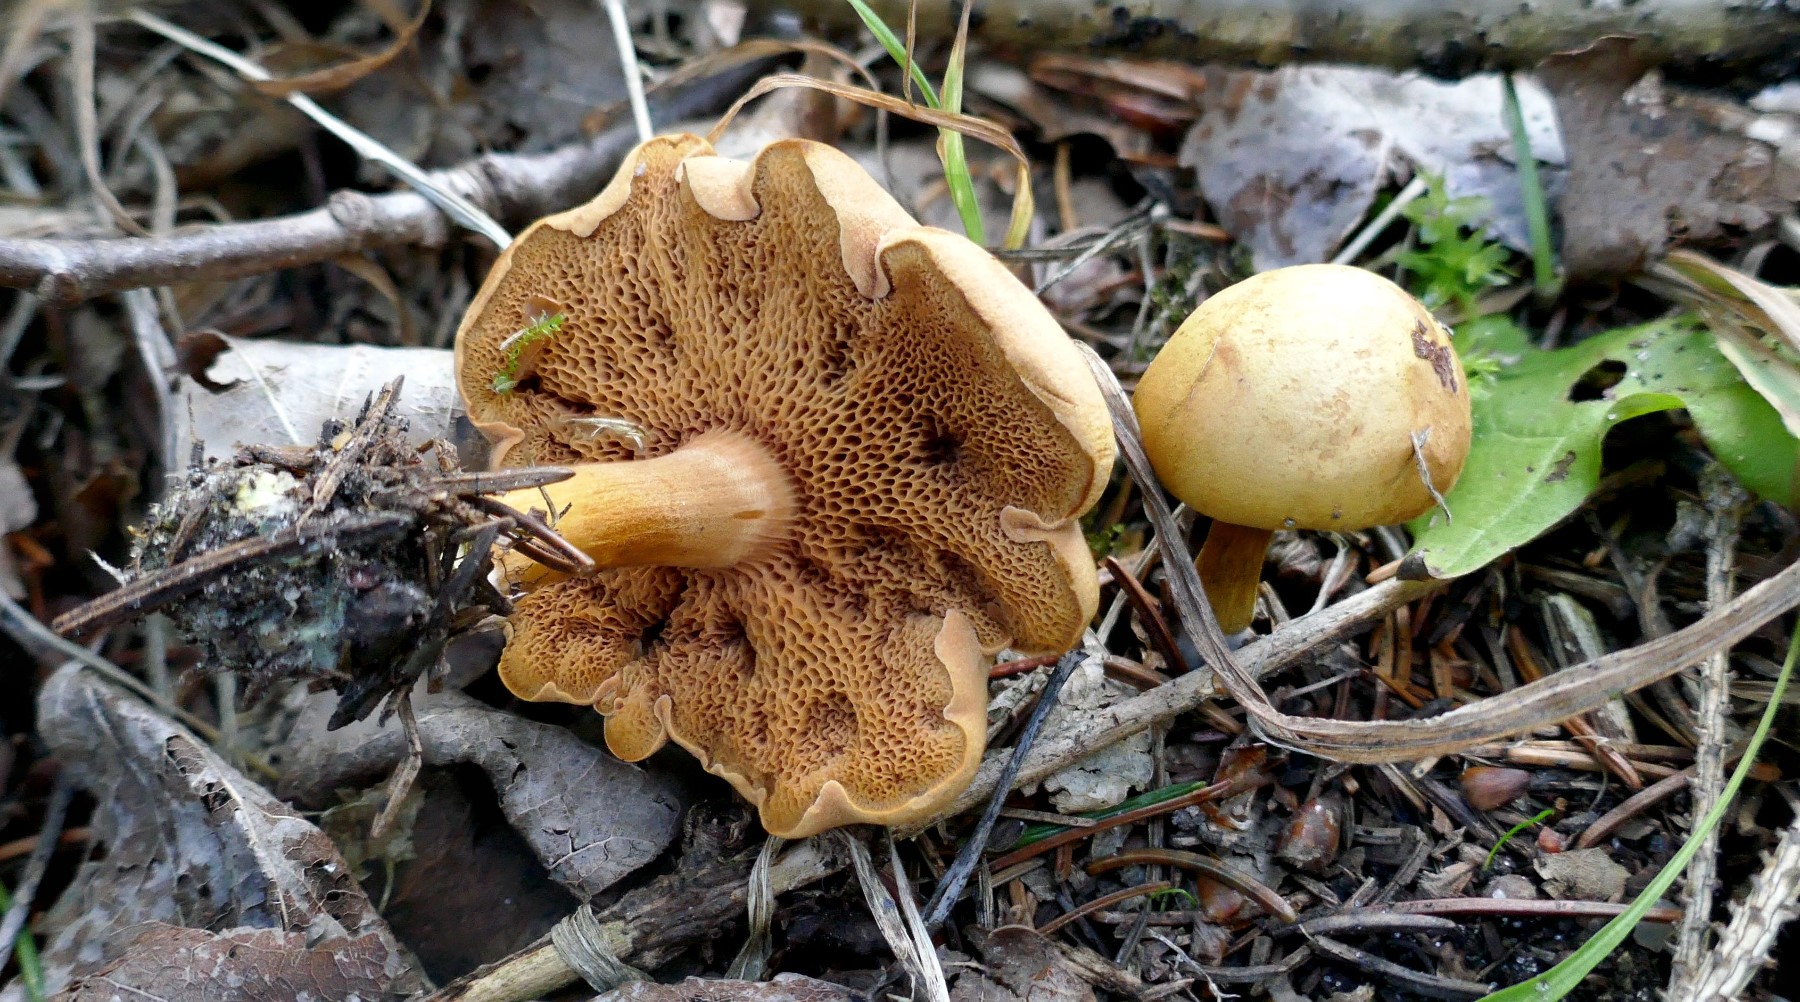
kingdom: Fungi
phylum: Basidiomycota
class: Agaricomycetes
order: Boletales
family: Boletaceae
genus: Chalciporus
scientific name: Chalciporus piperatus
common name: peberrørhat
